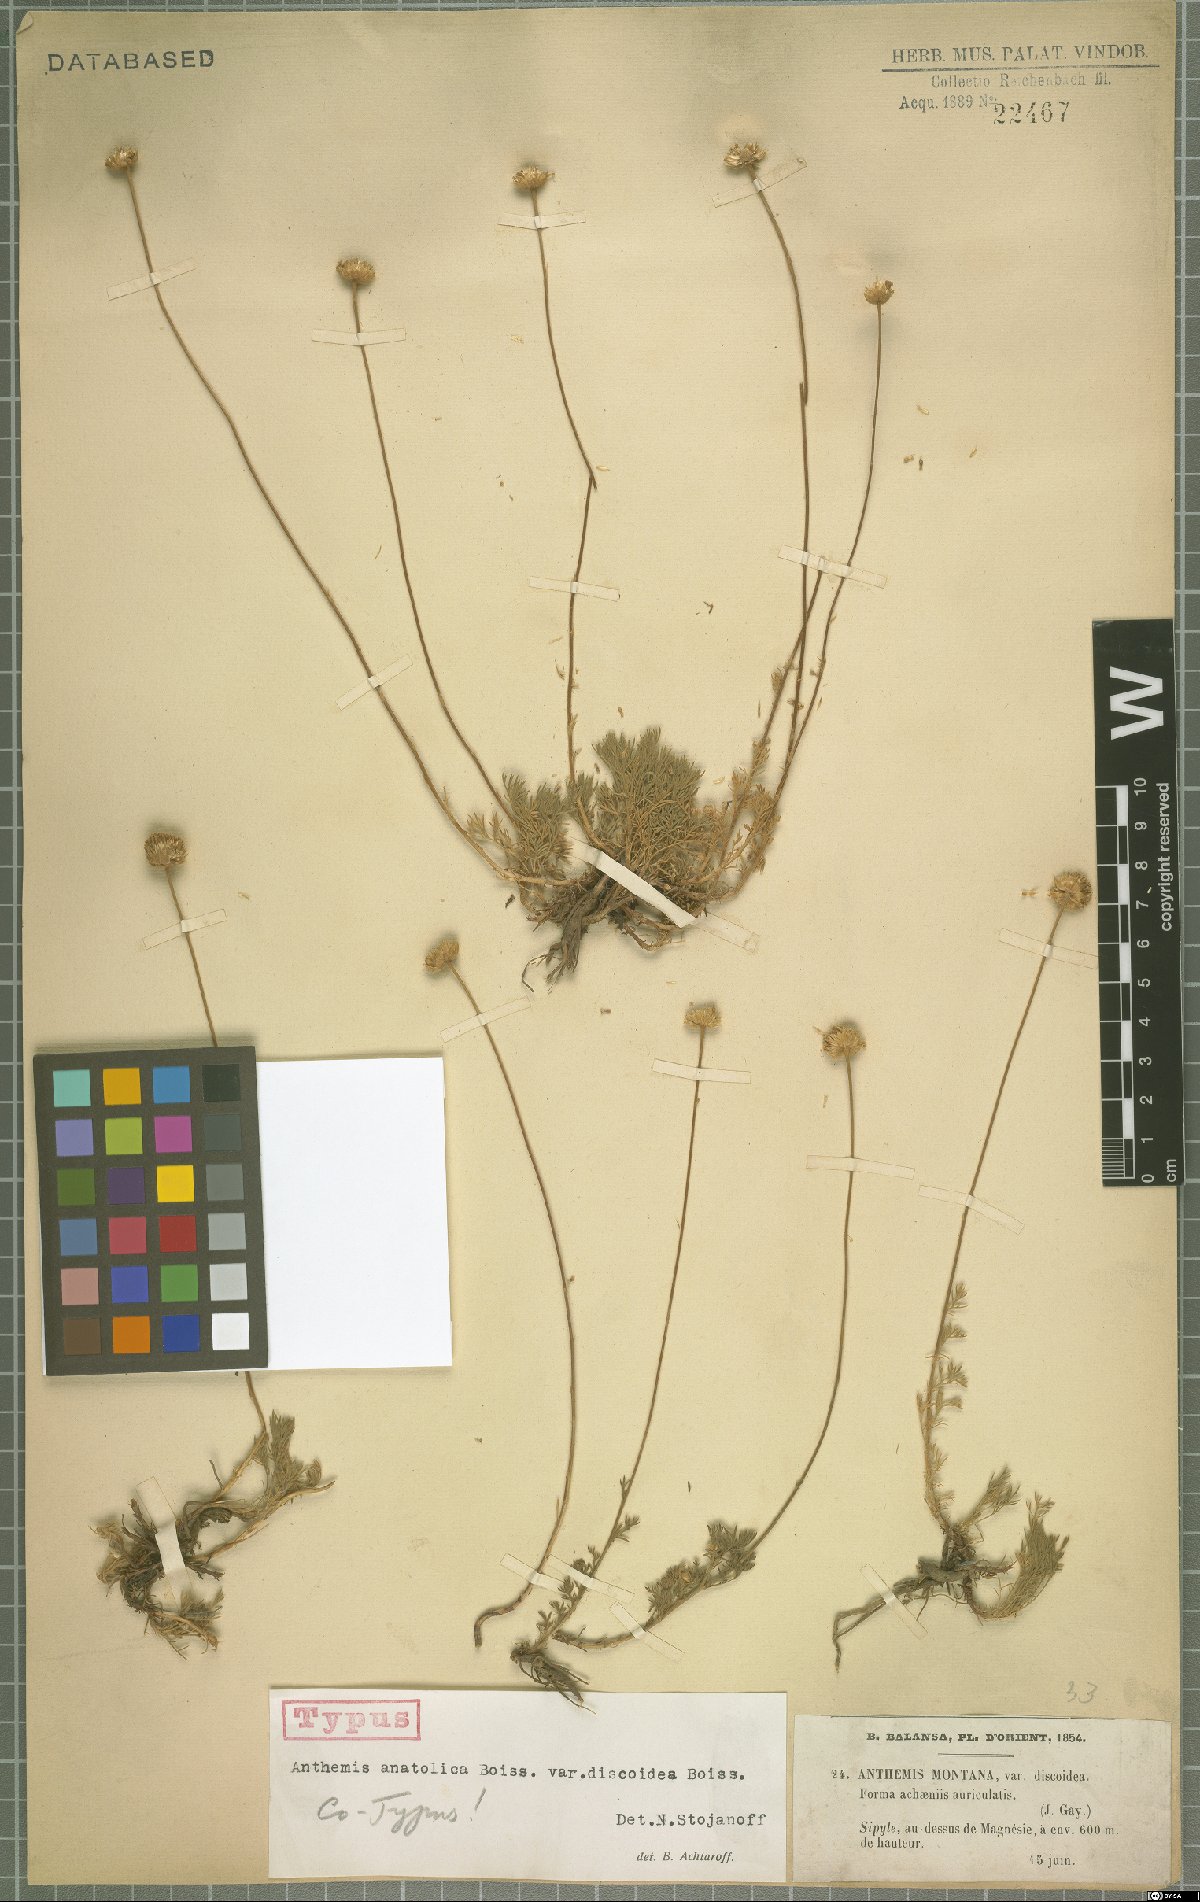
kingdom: Plantae
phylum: Tracheophyta
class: Magnoliopsida
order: Asterales
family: Asteraceae
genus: Anthemis
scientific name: Anthemis cretica
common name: Mountain dog-daisy
